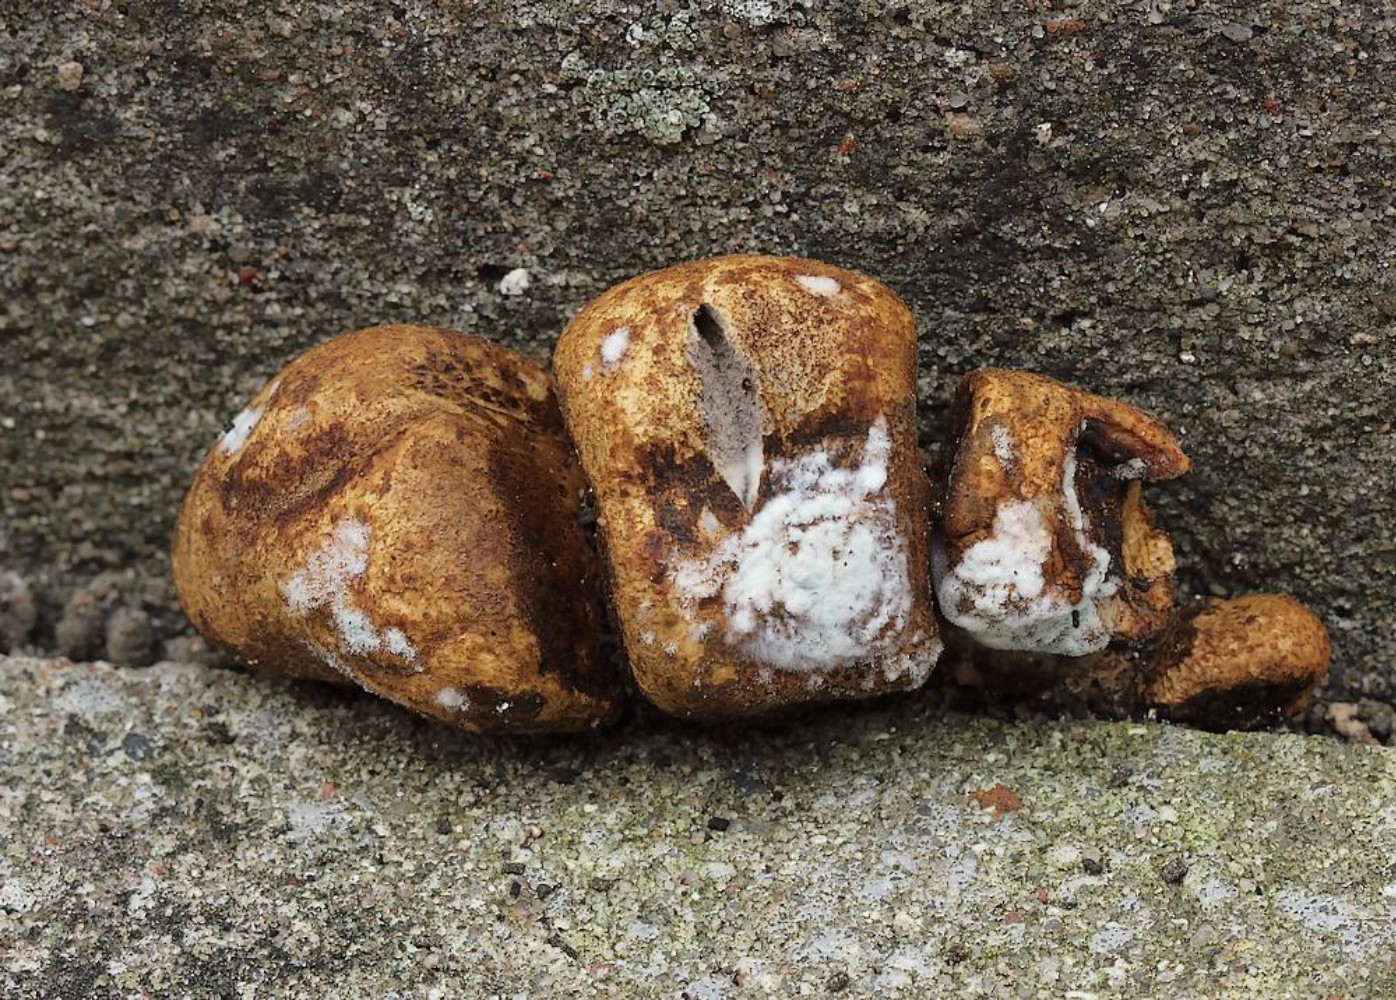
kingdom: Fungi
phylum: Basidiomycota
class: Agaricomycetes
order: Boletales
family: Sclerodermataceae
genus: Scleroderma
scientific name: Scleroderma areolatum
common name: plettet bruskbold
